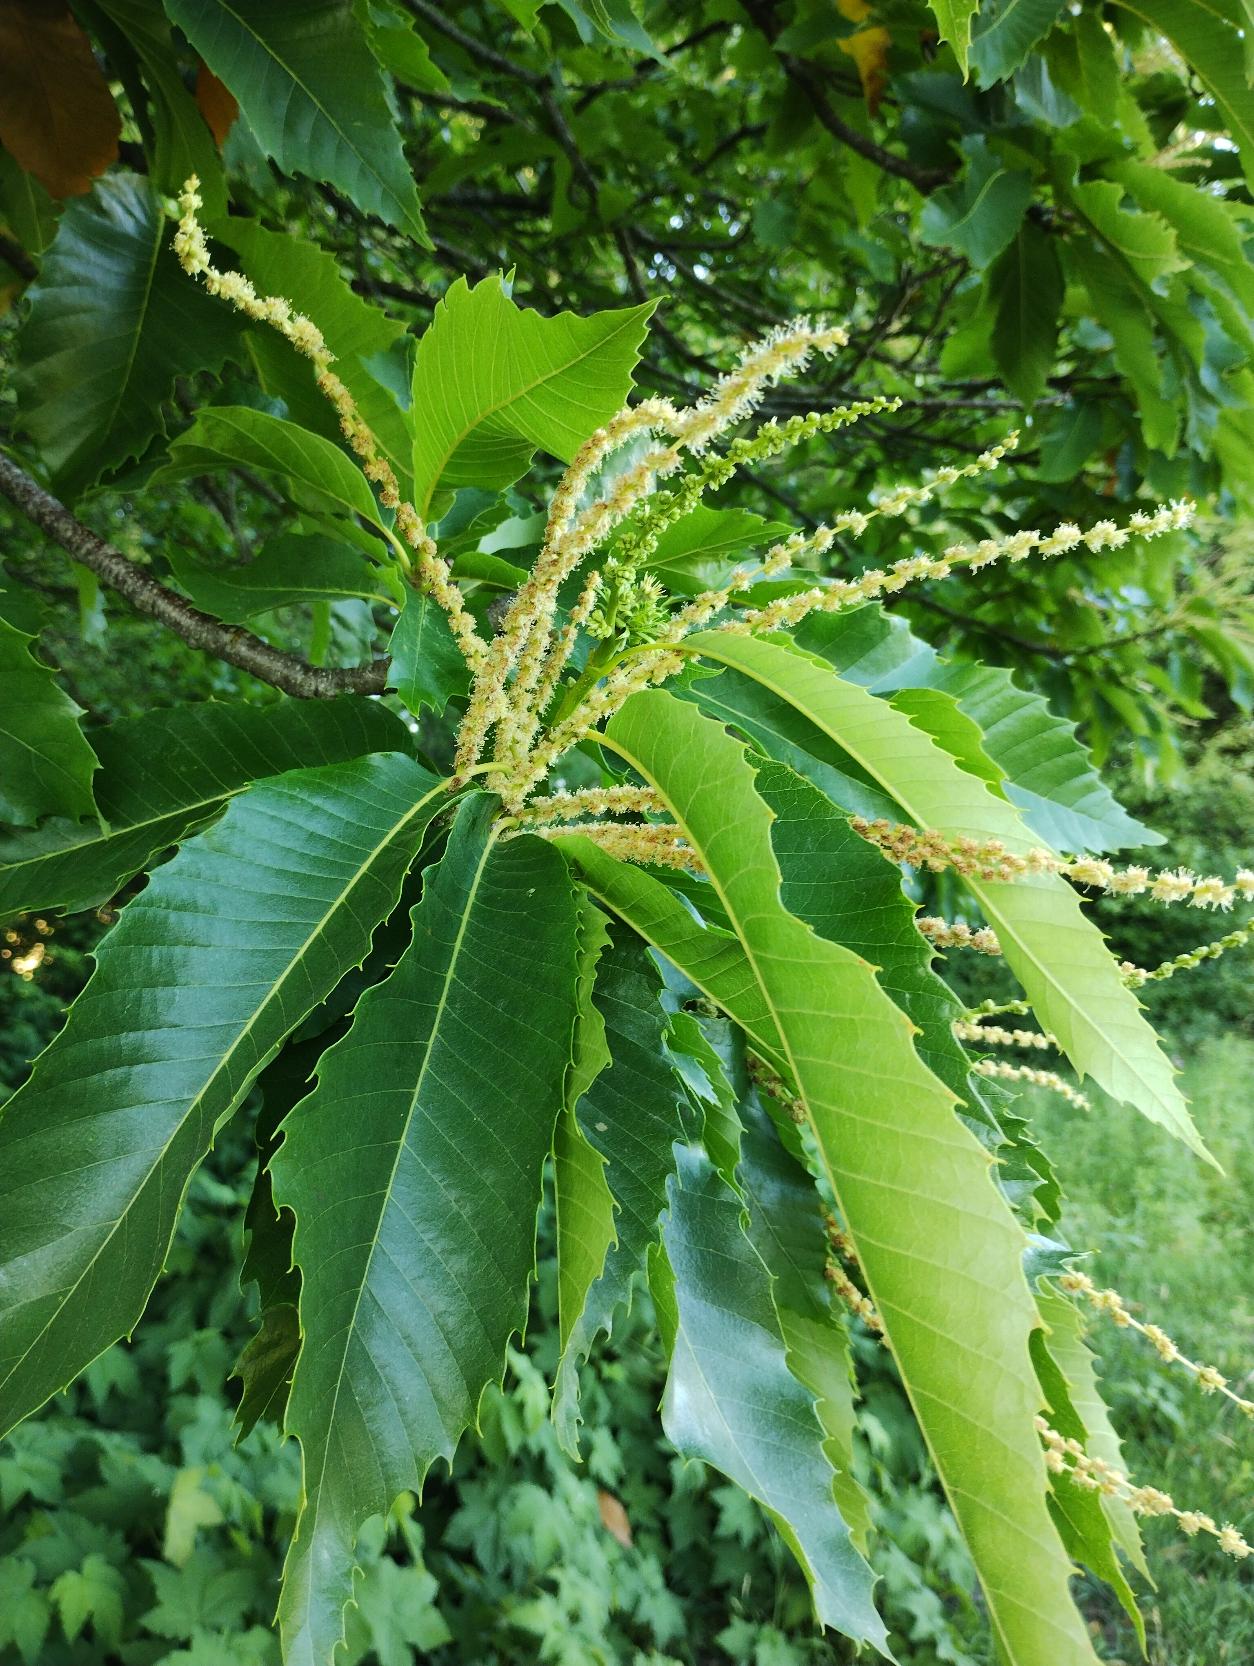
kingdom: Plantae
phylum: Tracheophyta
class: Magnoliopsida
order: Fagales
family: Fagaceae
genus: Castanea
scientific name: Castanea sativa
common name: Ægte kastanie
